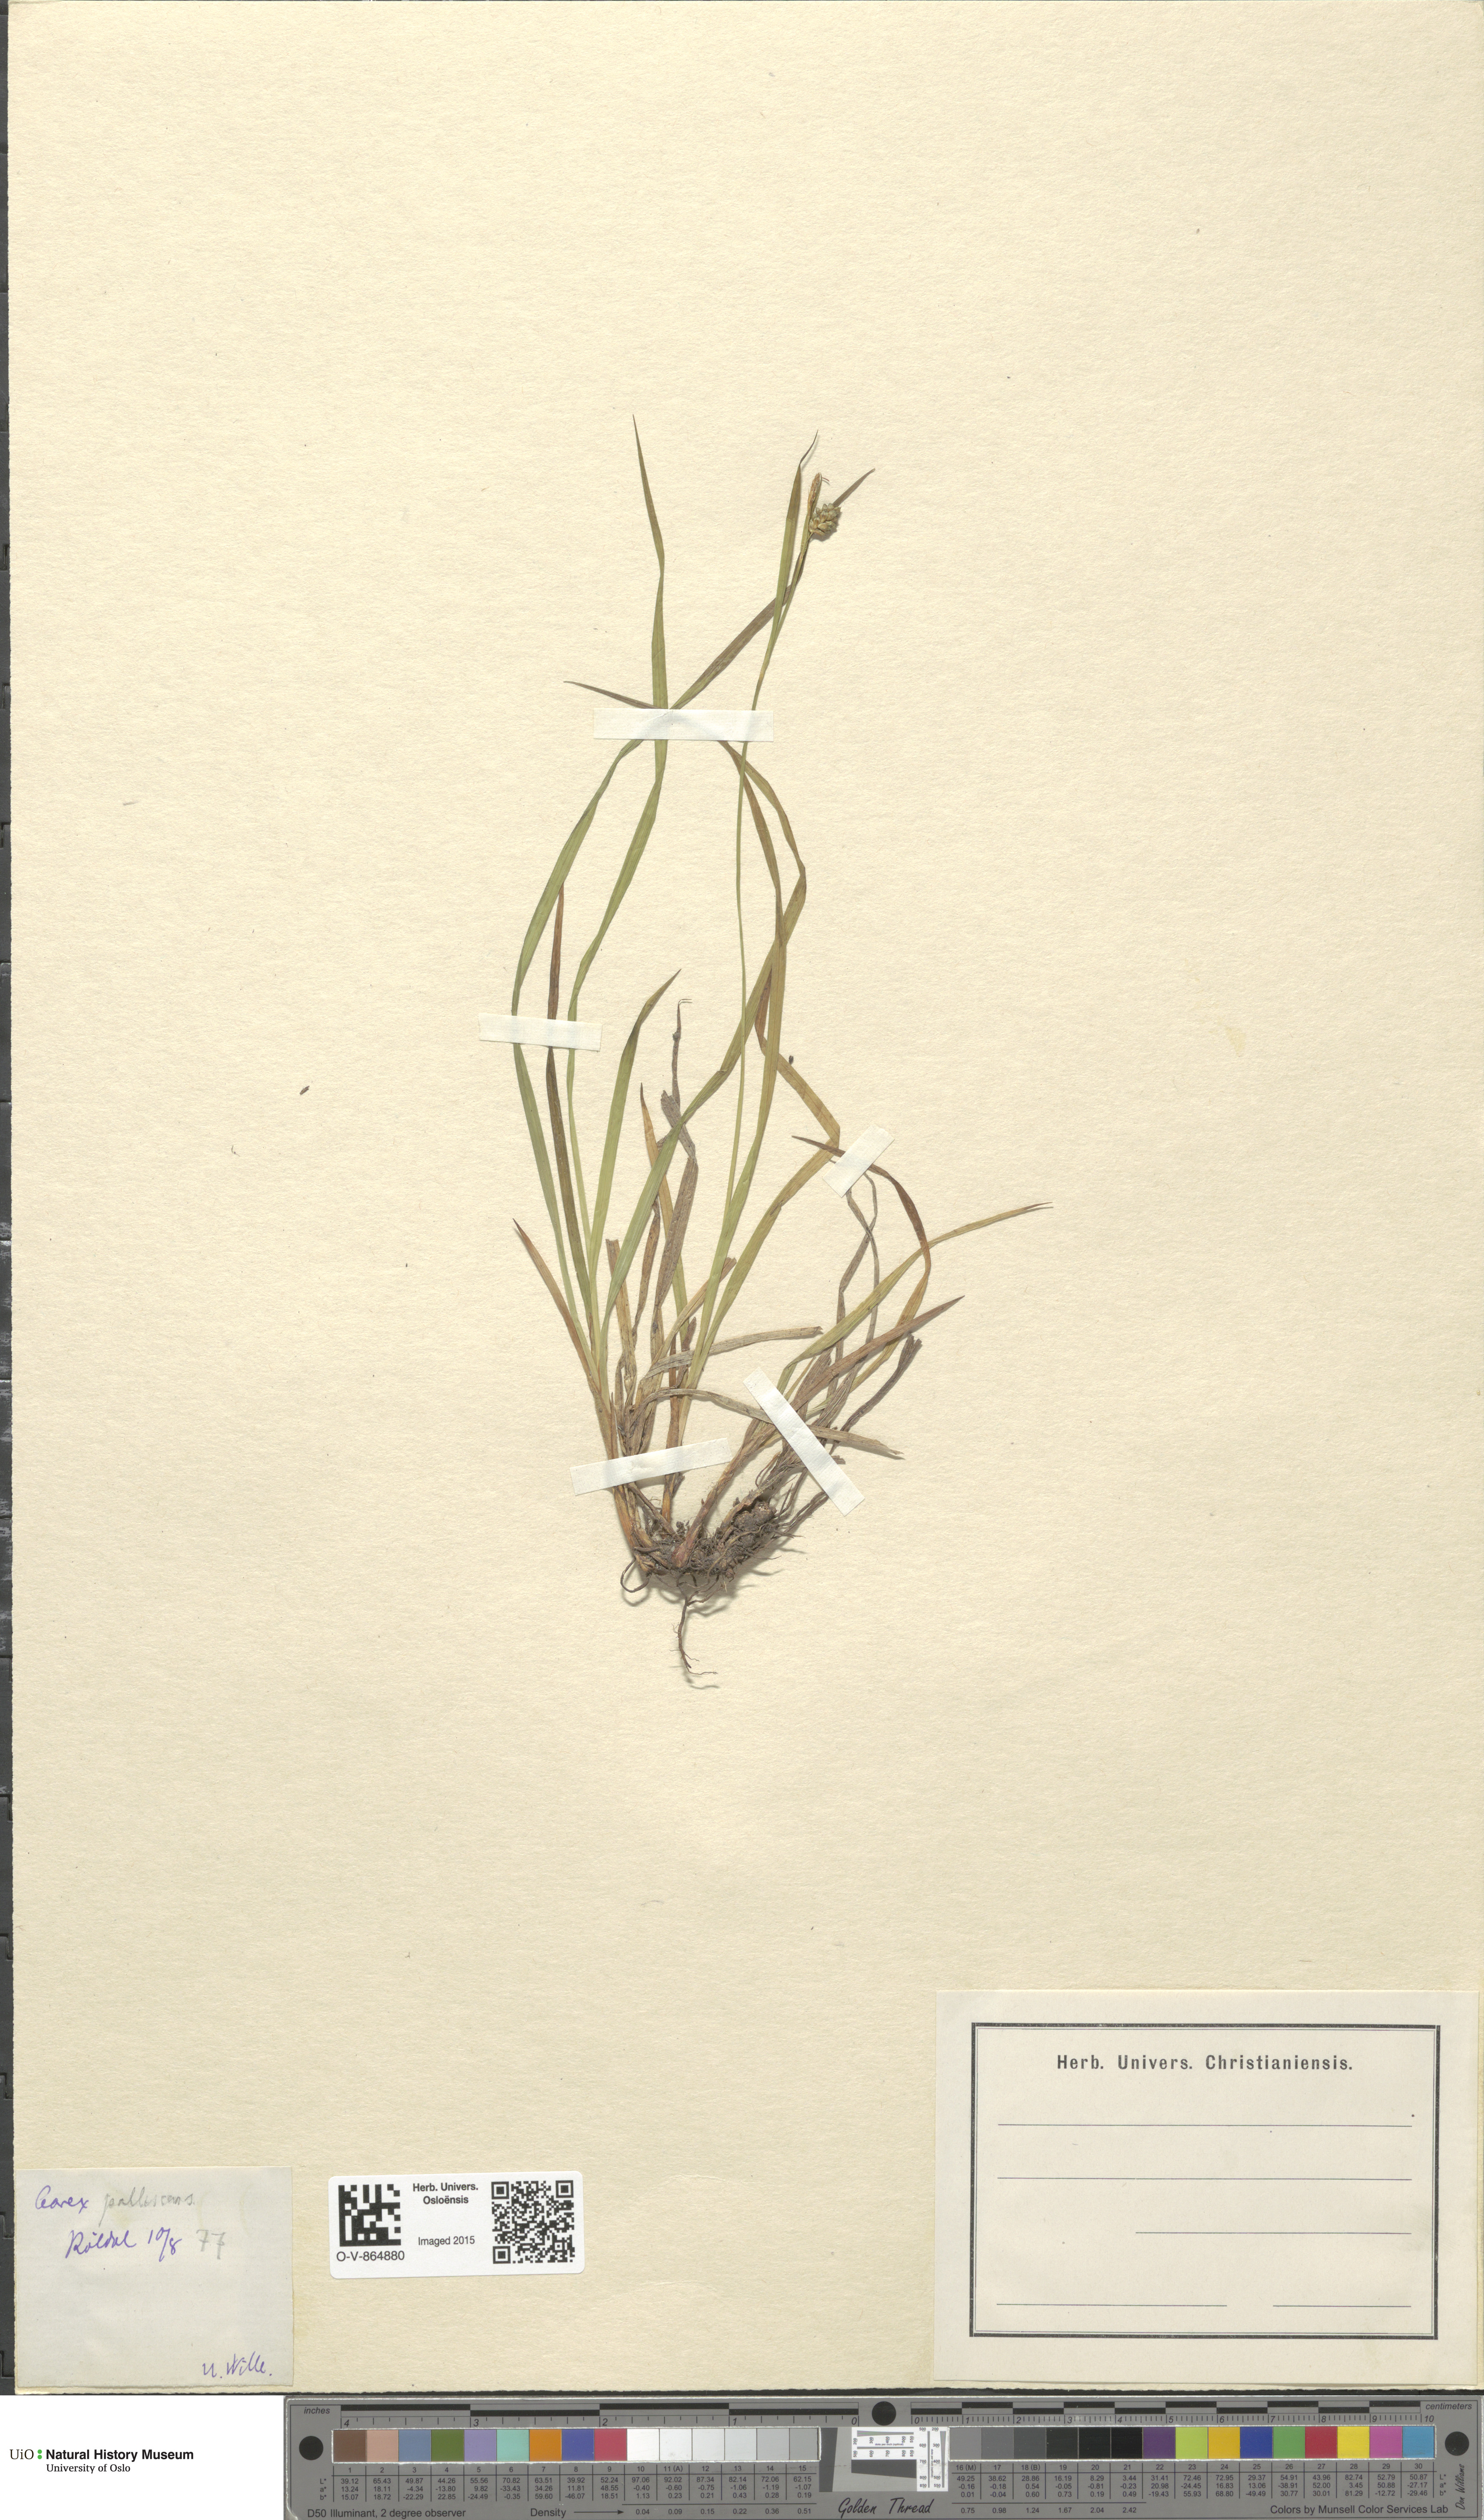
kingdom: Plantae
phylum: Tracheophyta
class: Liliopsida
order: Poales
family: Cyperaceae
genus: Carex
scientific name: Carex pallescens
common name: Pale sedge
